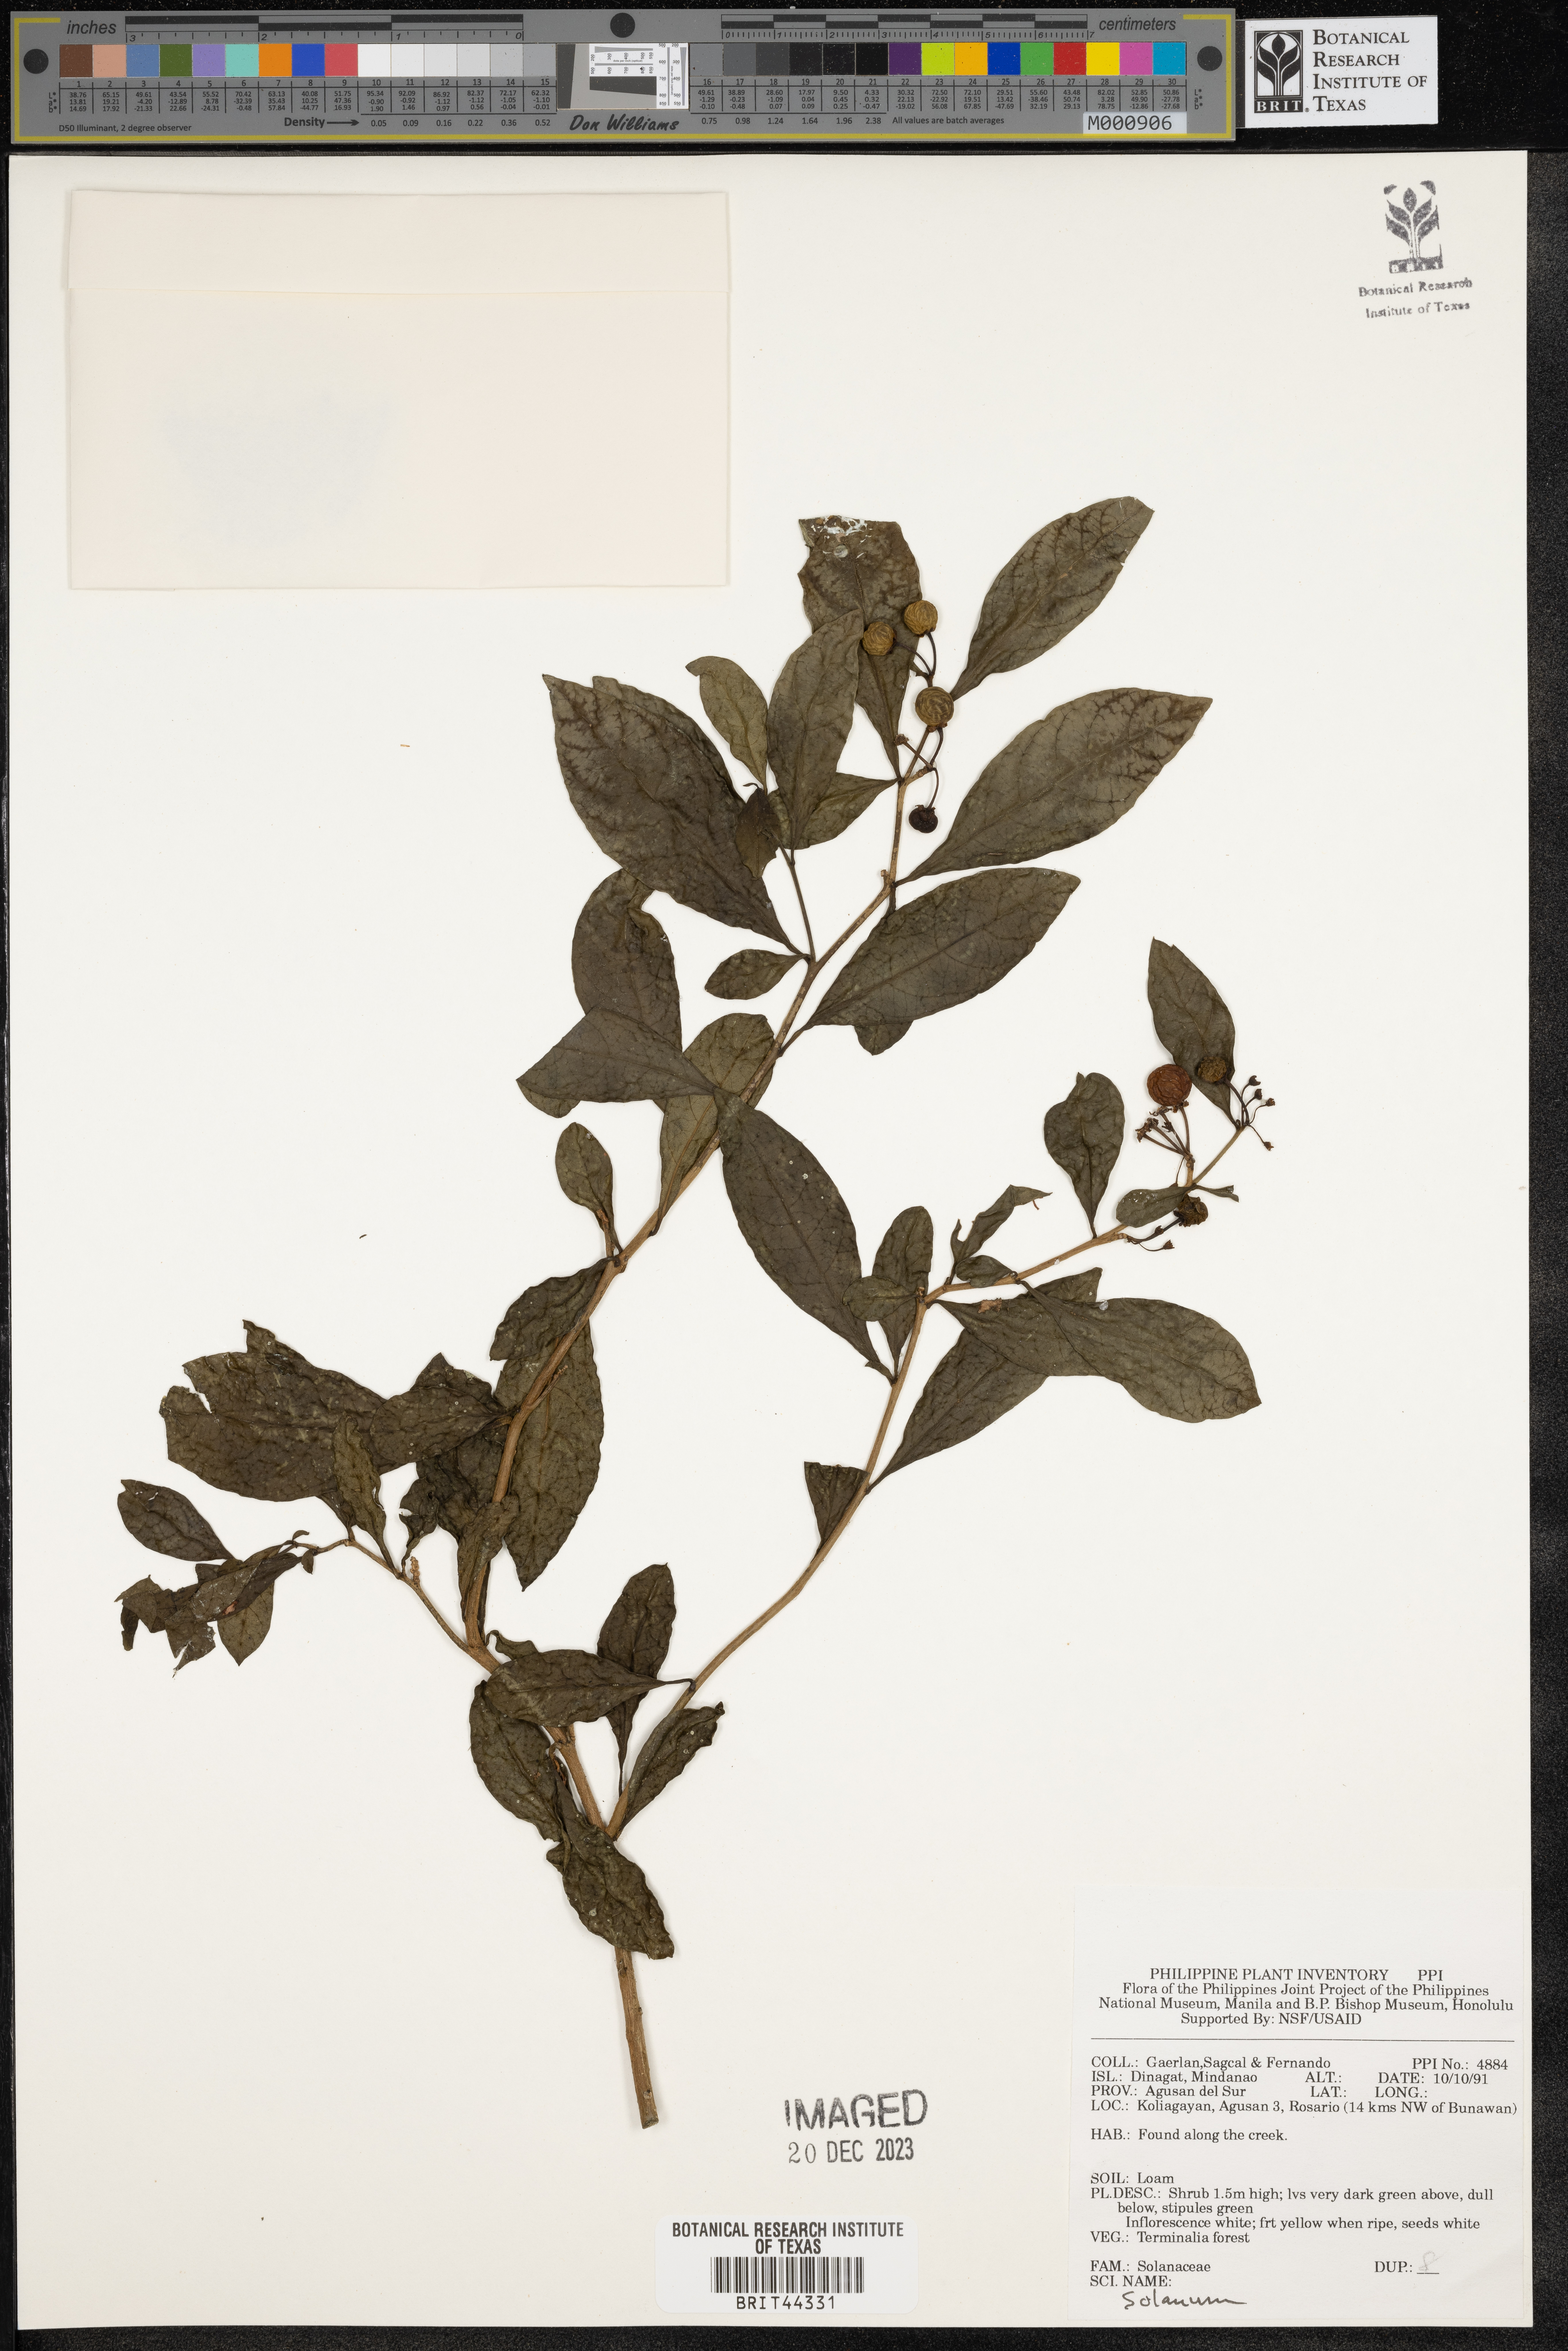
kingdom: Plantae
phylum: Tracheophyta
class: Magnoliopsida
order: Solanales
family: Solanaceae
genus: Solanum
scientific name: Solanum
